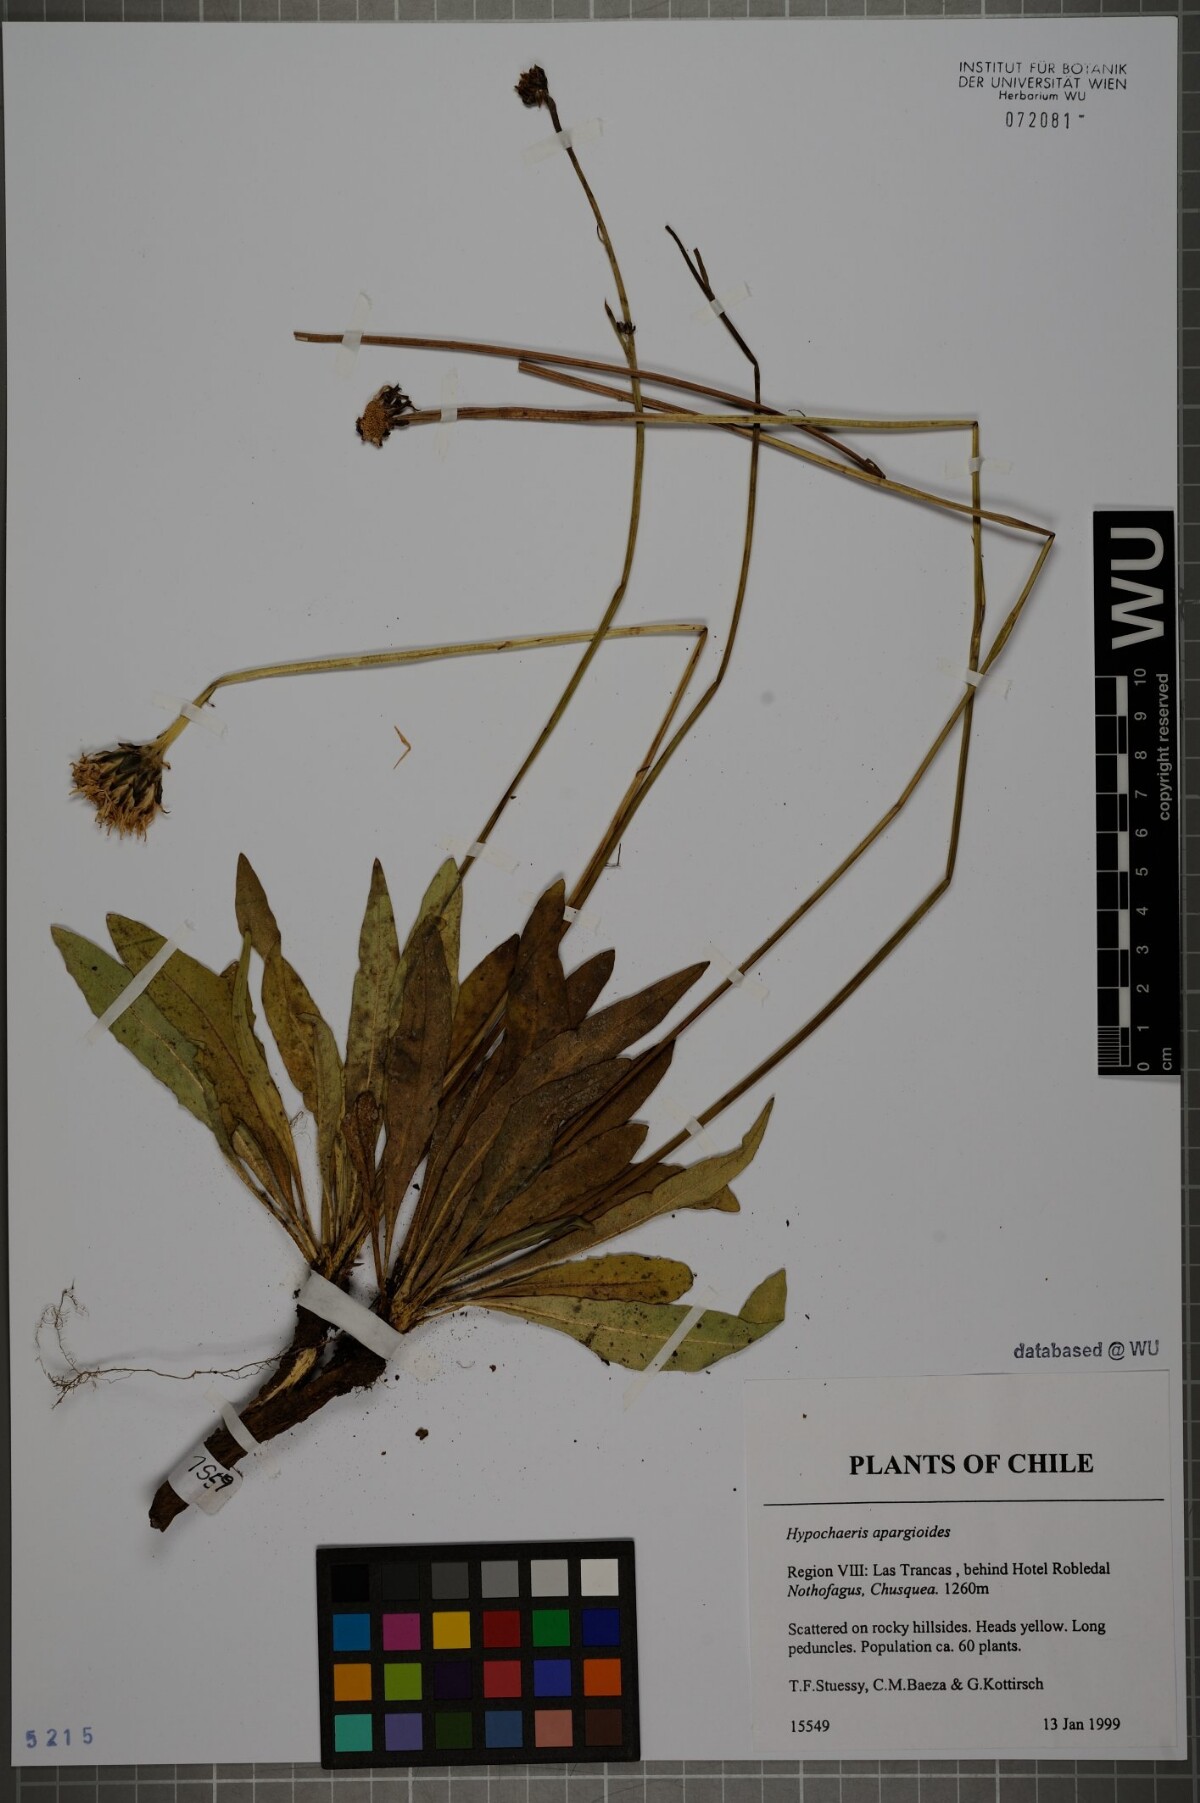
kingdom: Plantae
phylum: Tracheophyta
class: Magnoliopsida
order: Asterales
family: Asteraceae
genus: Hypochaeris
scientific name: Hypochaeris apargioides
